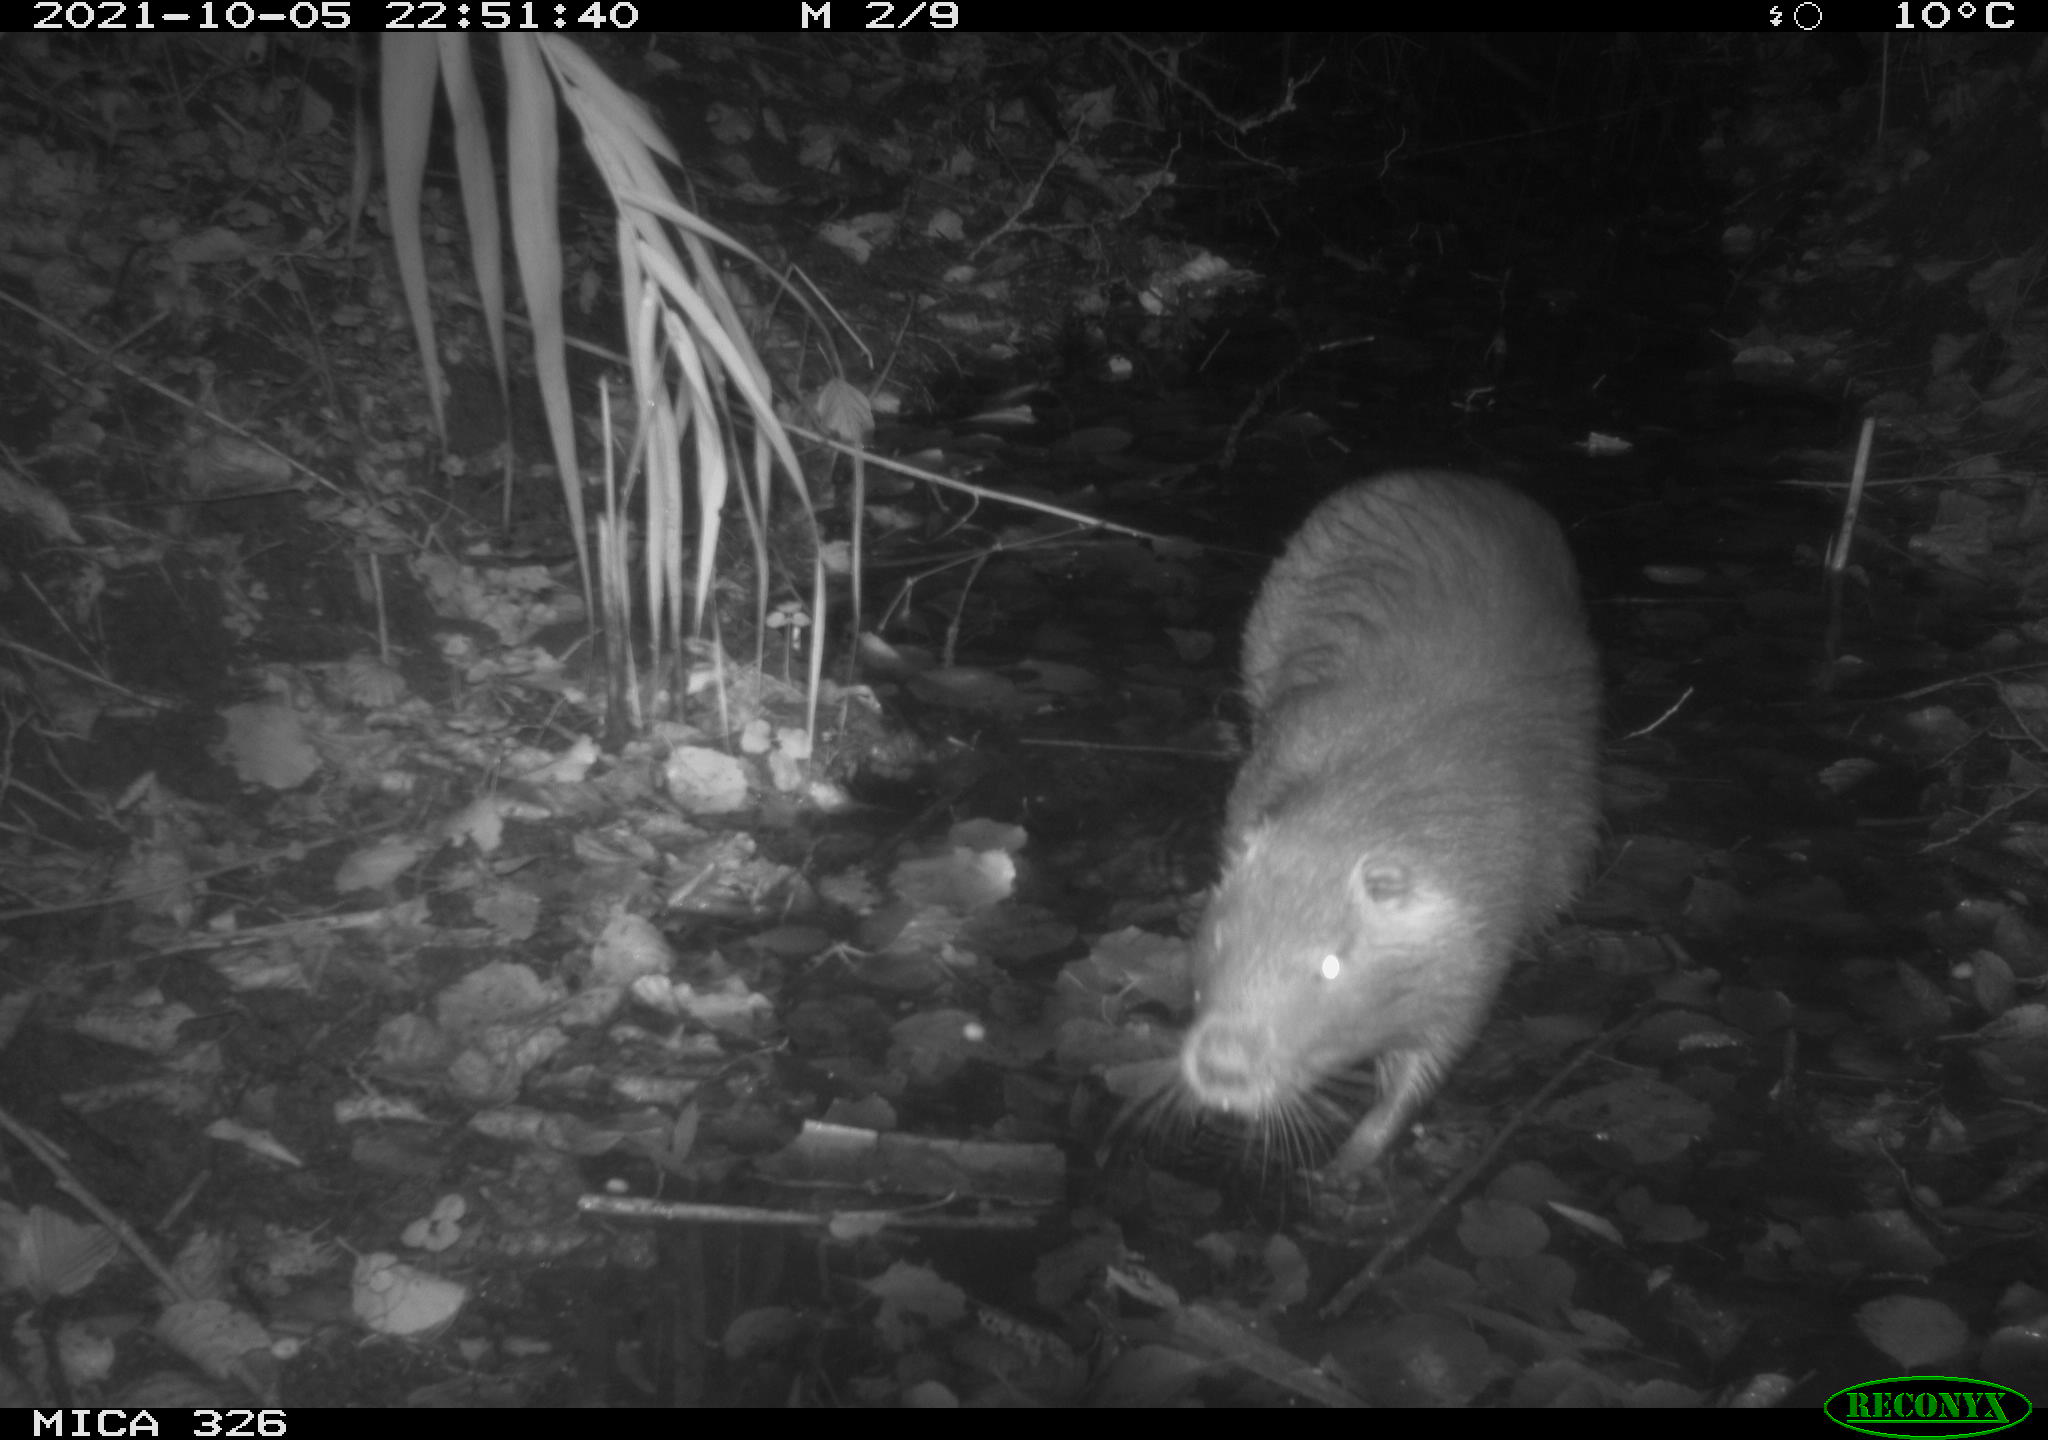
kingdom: Animalia
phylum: Chordata
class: Mammalia
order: Rodentia
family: Myocastoridae
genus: Myocastor
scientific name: Myocastor coypus
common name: Coypu
